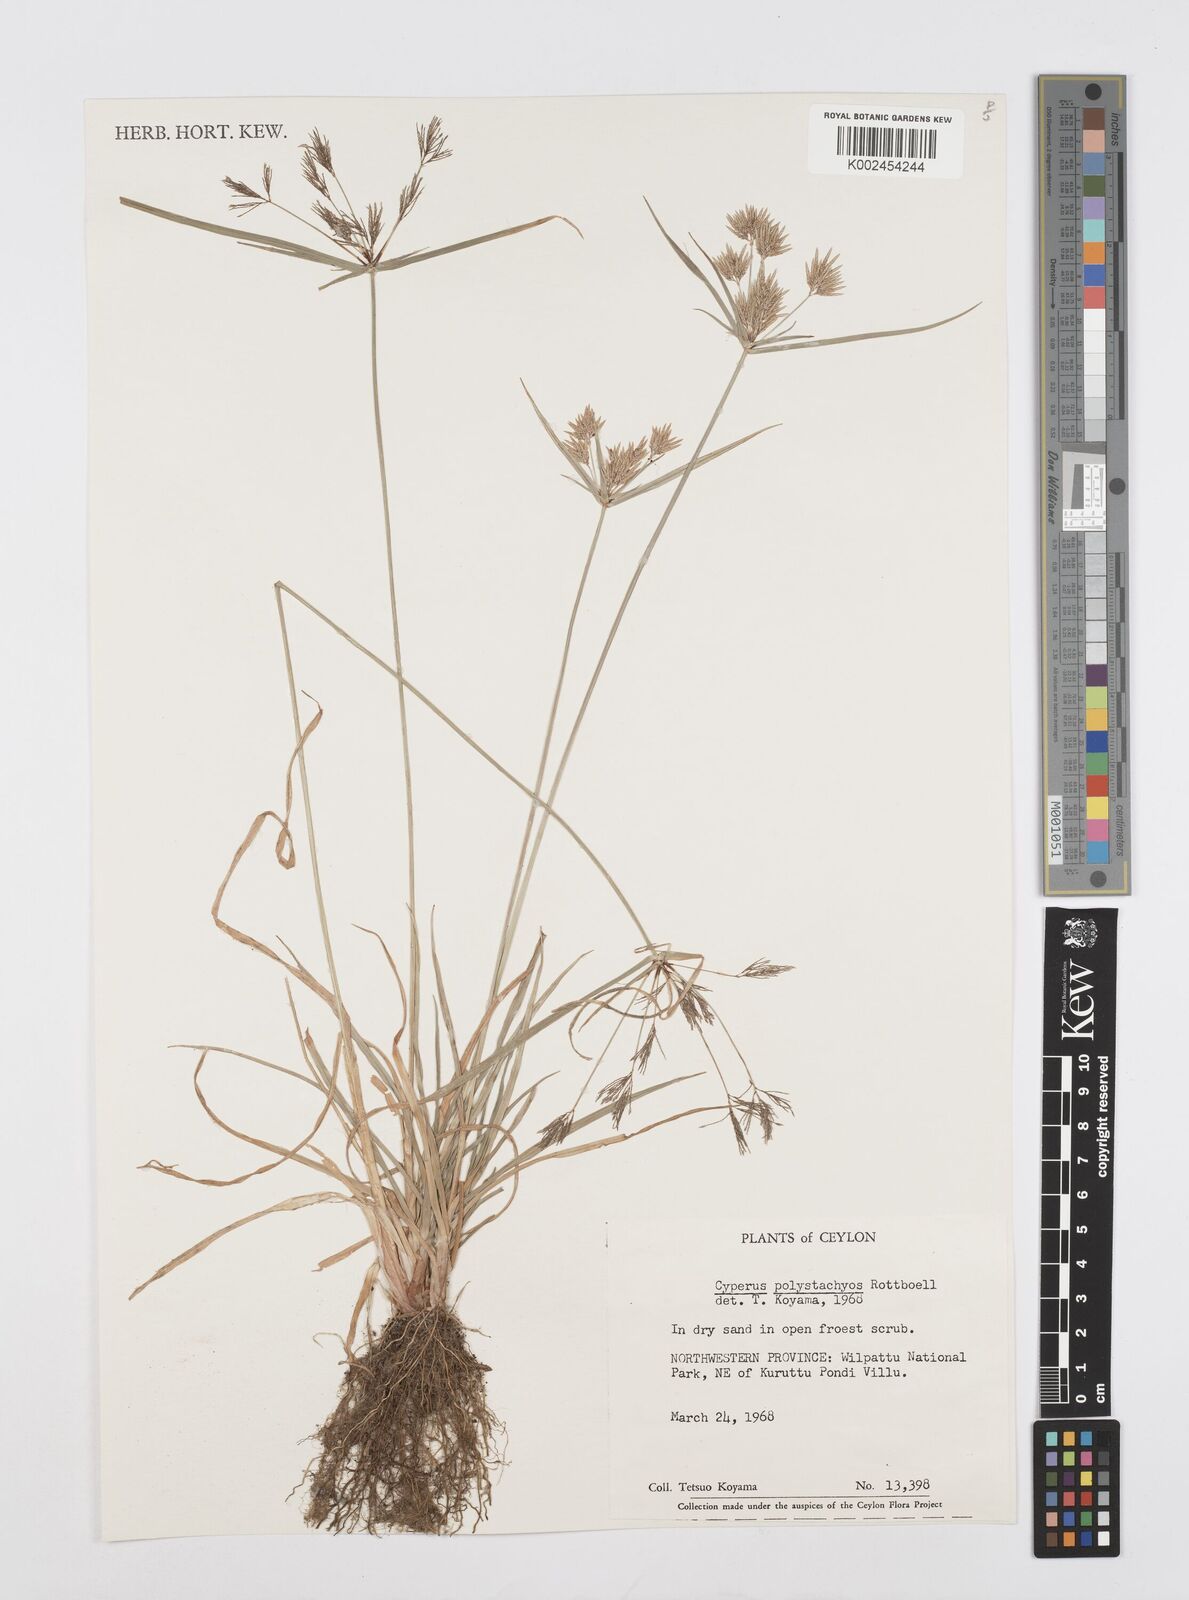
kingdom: Plantae
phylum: Tracheophyta
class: Liliopsida
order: Poales
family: Cyperaceae
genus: Cyperus
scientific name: Cyperus polystachyos
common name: Bunchy flat sedge
